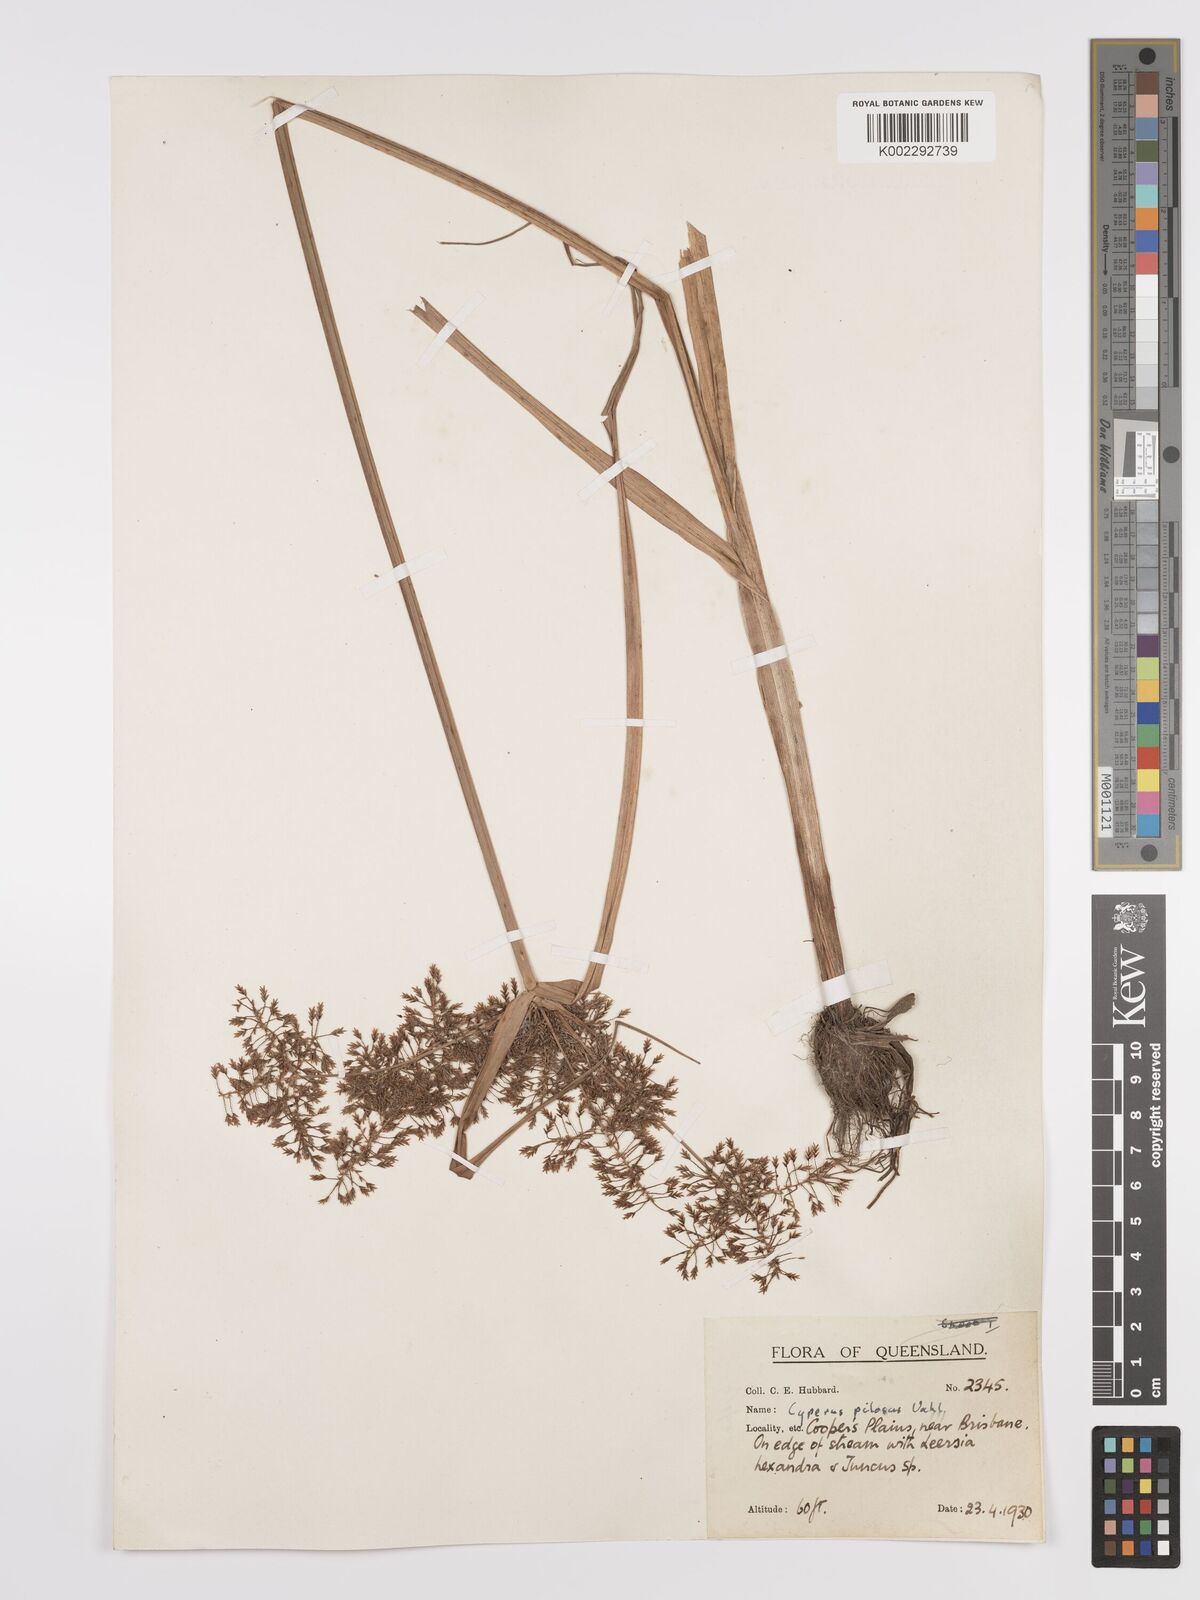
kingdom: Plantae
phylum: Tracheophyta
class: Liliopsida
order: Poales
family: Cyperaceae
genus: Cyperus
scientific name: Cyperus pilosus
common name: Fuzzy flatsedge
